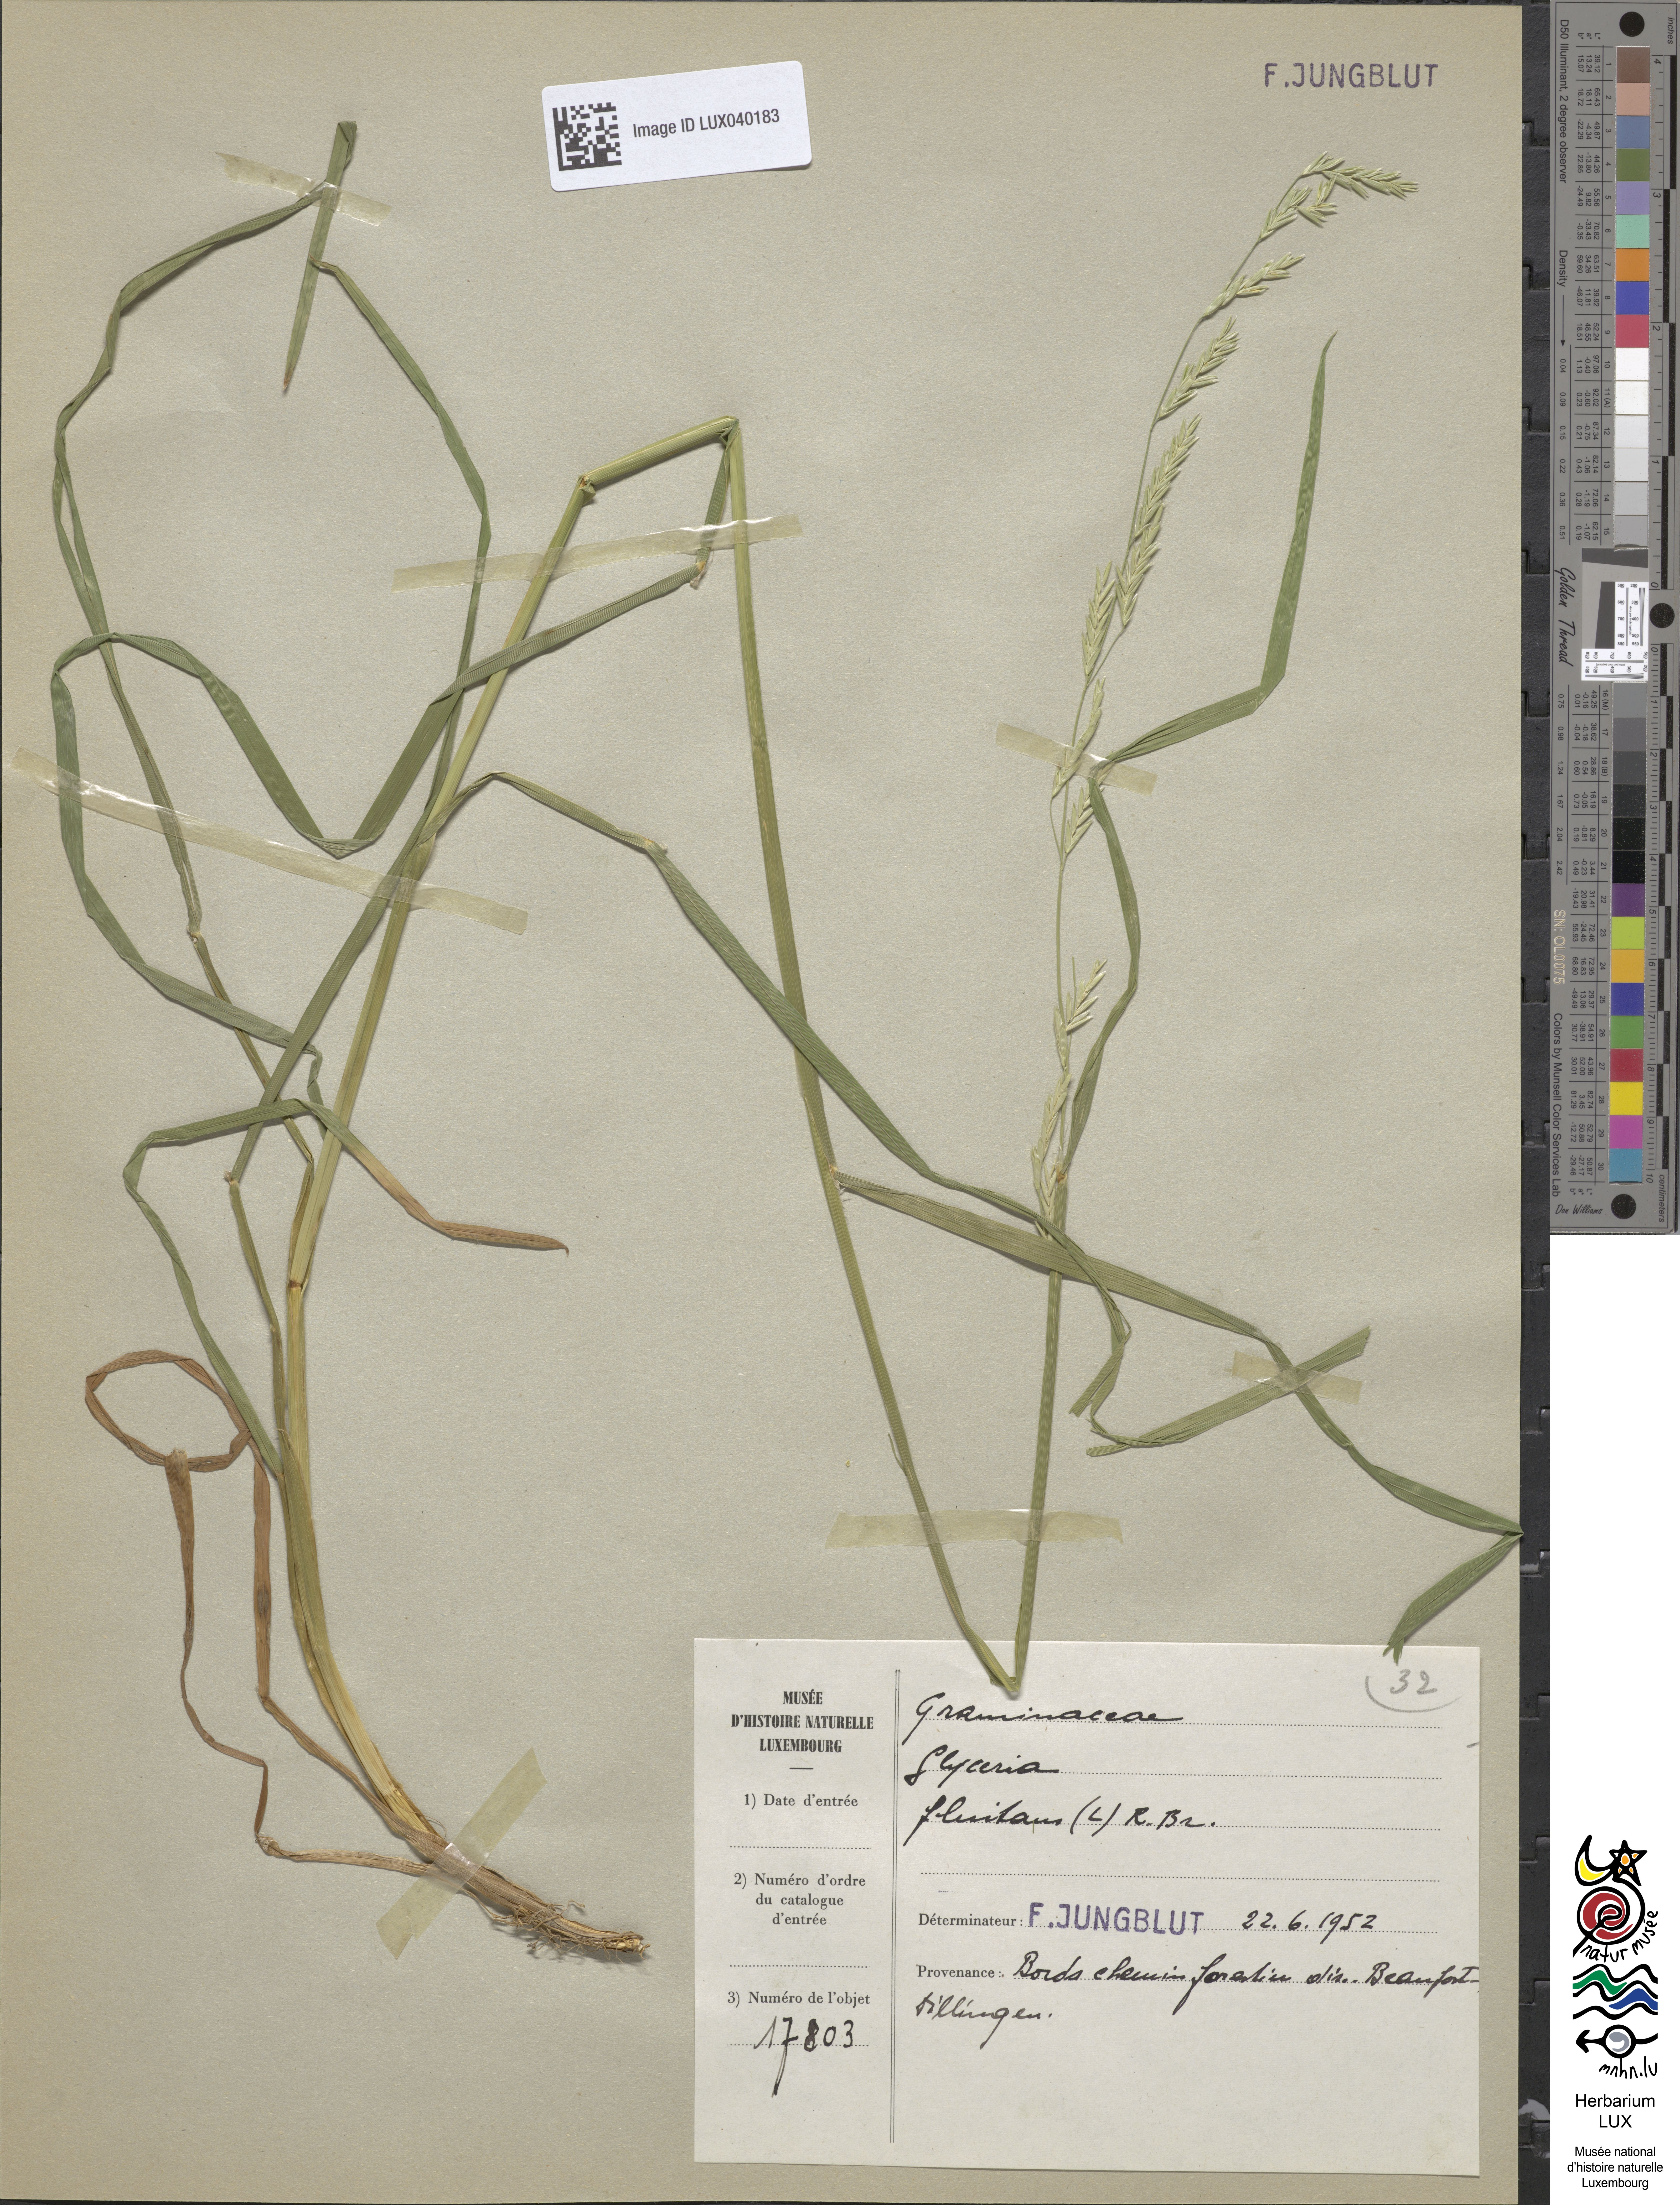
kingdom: Plantae
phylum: Tracheophyta
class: Liliopsida
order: Poales
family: Poaceae
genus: Glyceria
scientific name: Glyceria fluitans
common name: Floating sweet-grass
